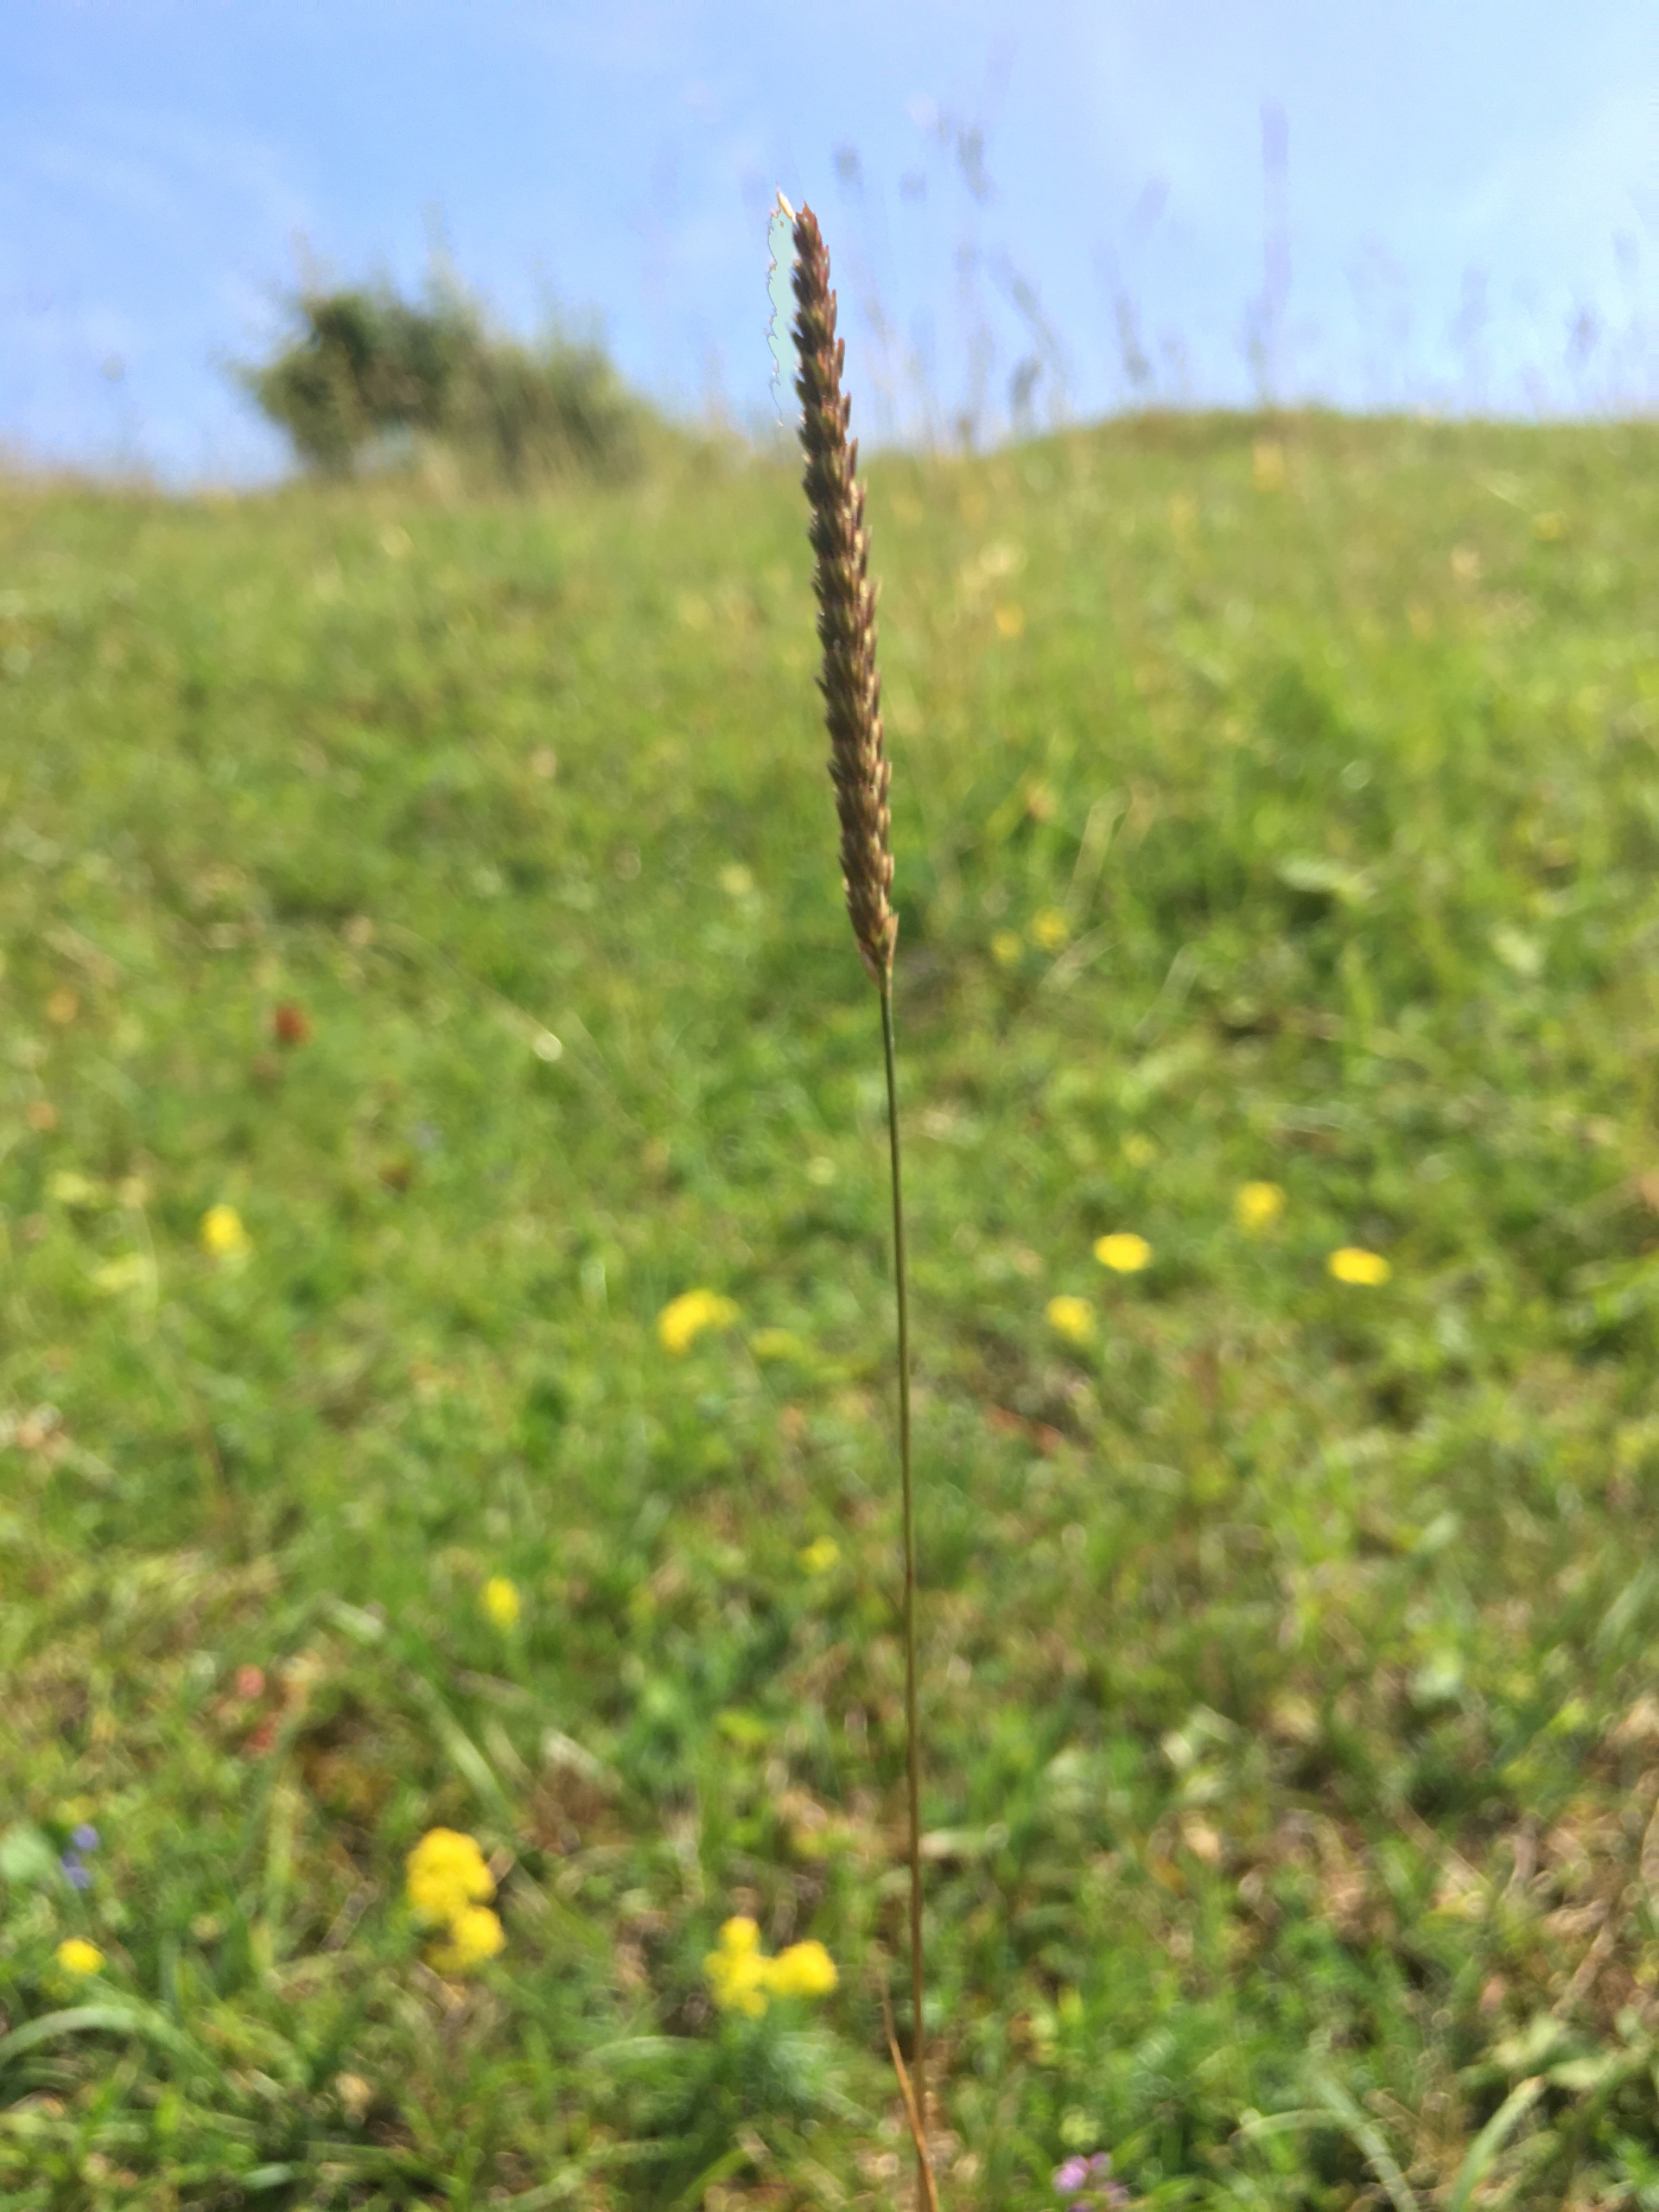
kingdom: Plantae
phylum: Tracheophyta
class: Liliopsida
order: Poales
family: Poaceae
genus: Cynosurus
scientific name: Cynosurus cristatus
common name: Kamgræs
